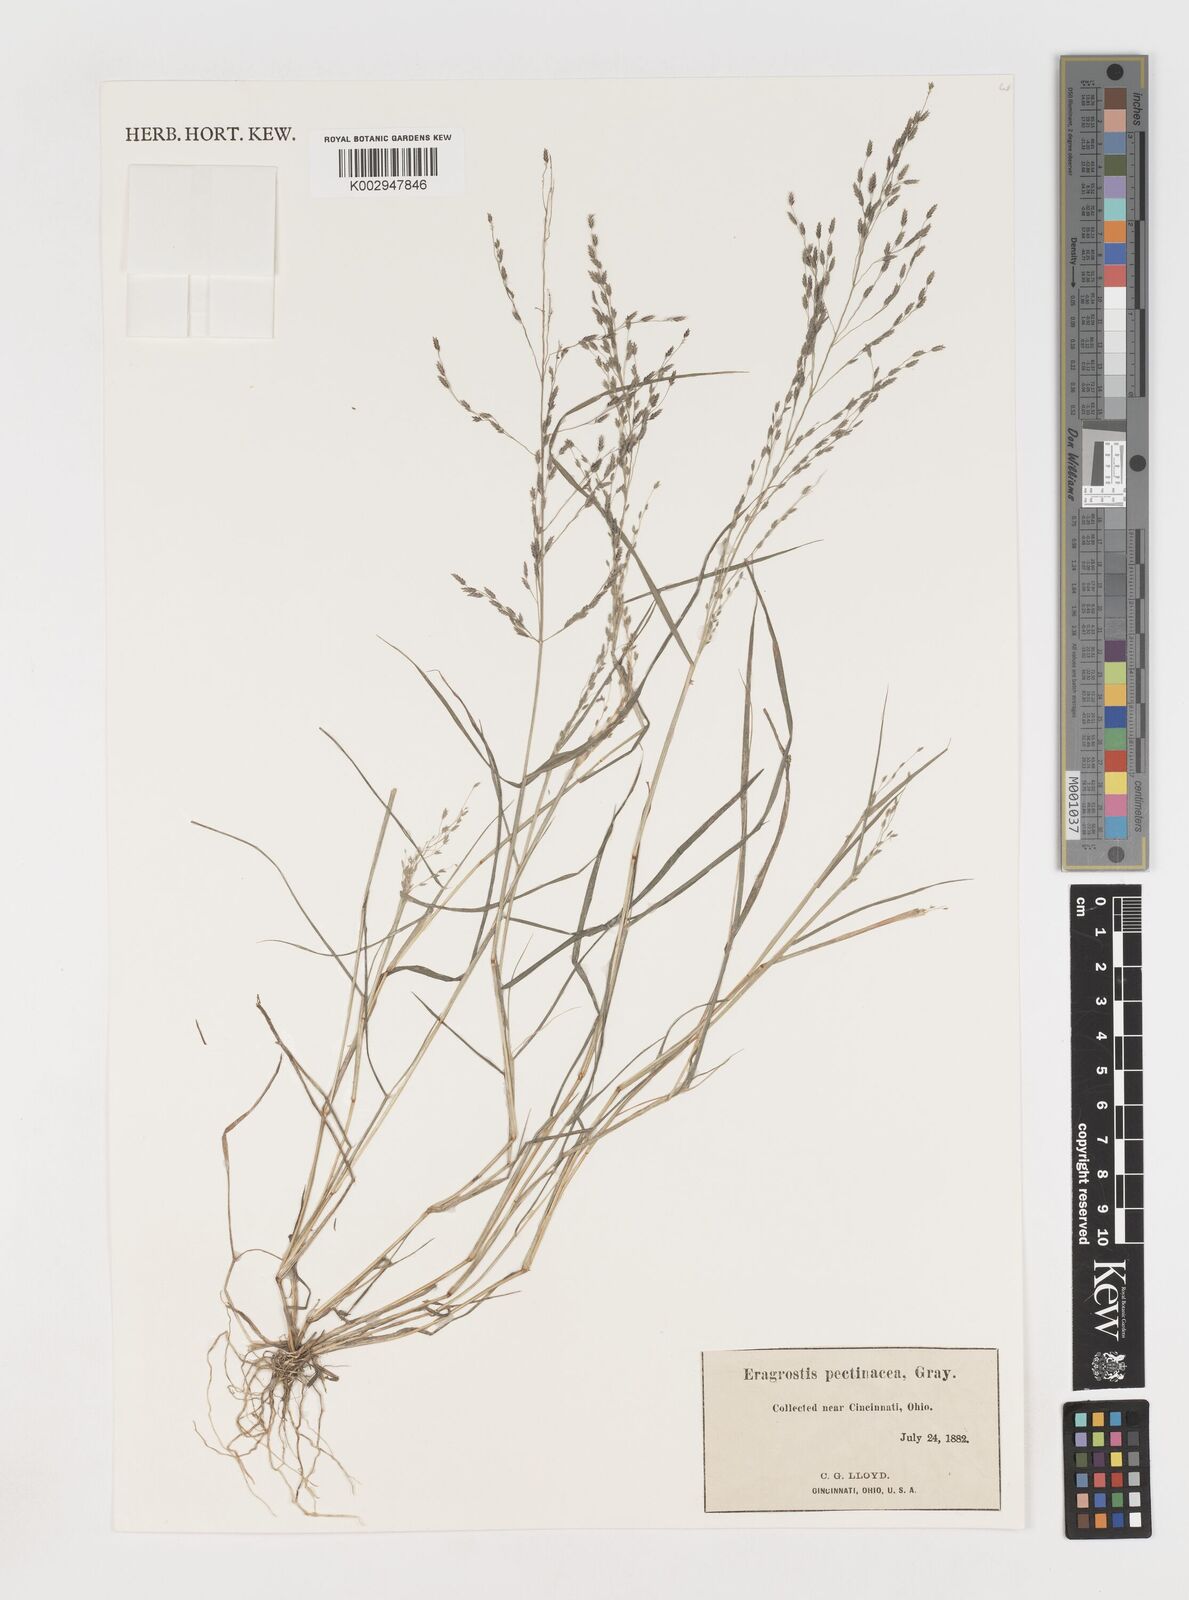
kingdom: Plantae
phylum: Tracheophyta
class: Liliopsida
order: Poales
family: Poaceae
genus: Eragrostis
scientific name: Eragrostis pectinacea
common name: Tufted lovegrass
